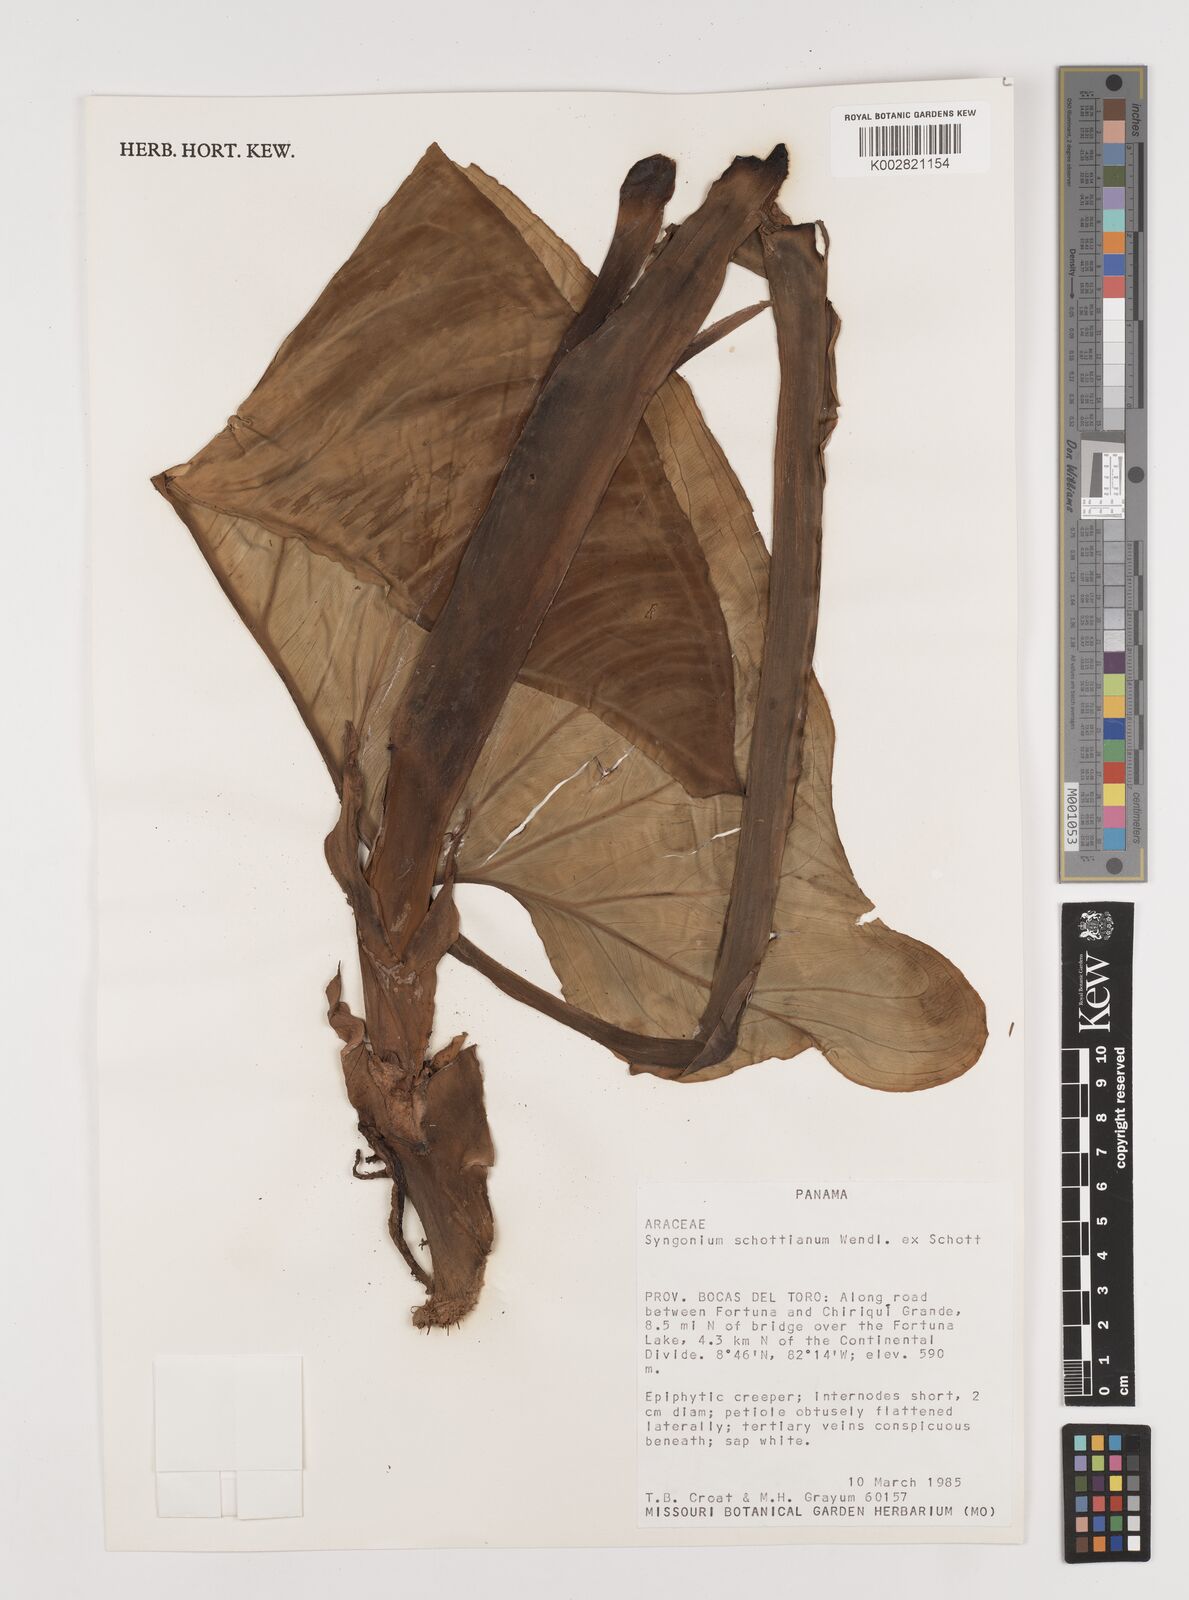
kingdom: Plantae
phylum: Tracheophyta
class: Liliopsida
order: Alismatales
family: Araceae
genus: Syngonium
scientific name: Syngonium schottianum
